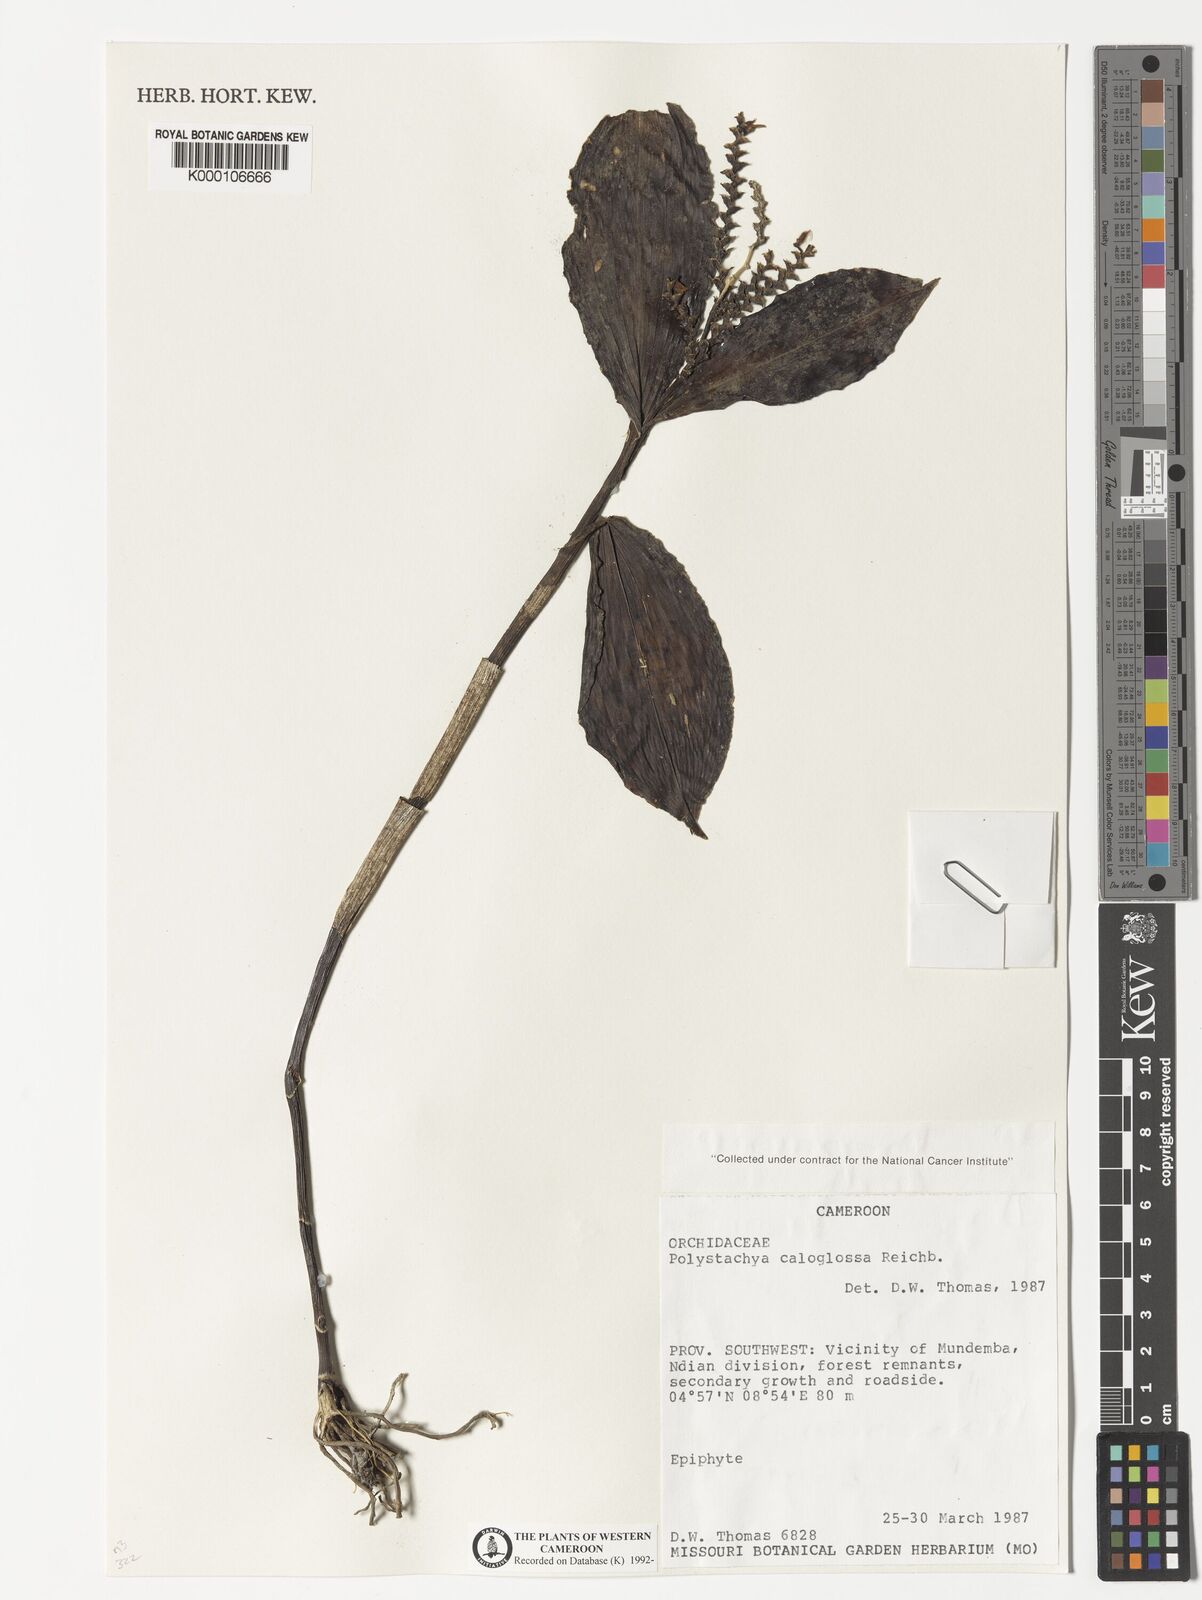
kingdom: Plantae
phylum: Tracheophyta
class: Liliopsida
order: Asparagales
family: Orchidaceae
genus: Polystachya
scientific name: Polystachya caloglossa
